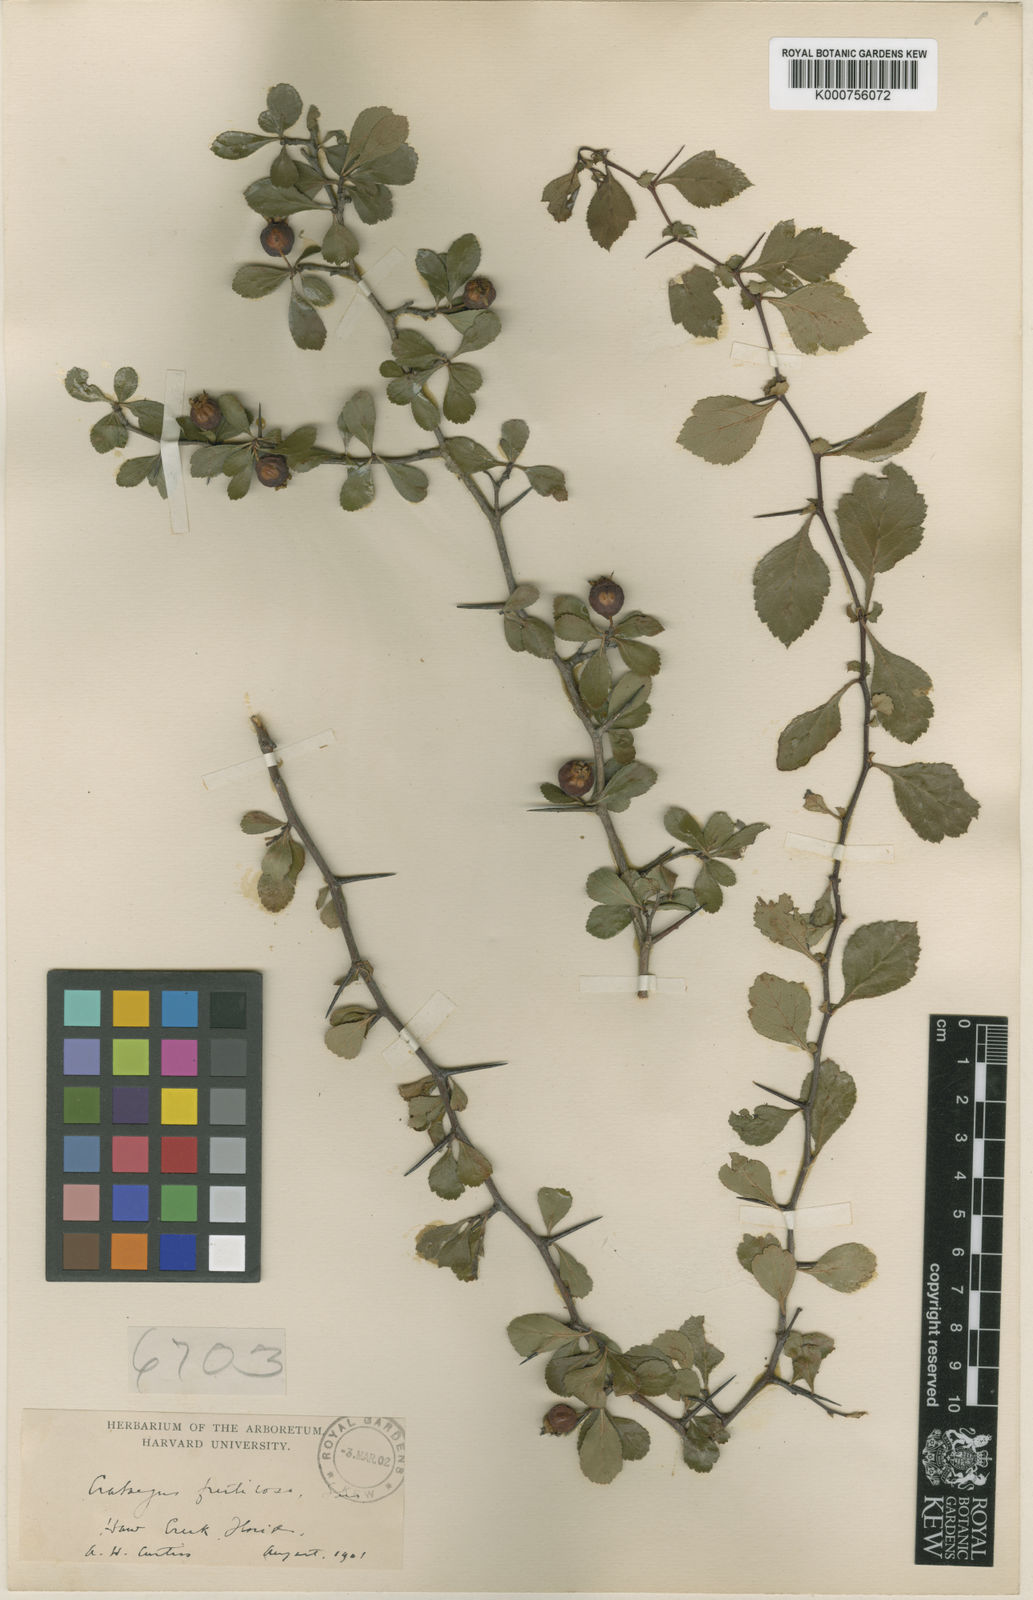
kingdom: Plantae
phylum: Tracheophyta
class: Magnoliopsida
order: Rosales
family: Rosaceae
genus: Crataegus
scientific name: Crataegus aestivalis
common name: Mayhaw
